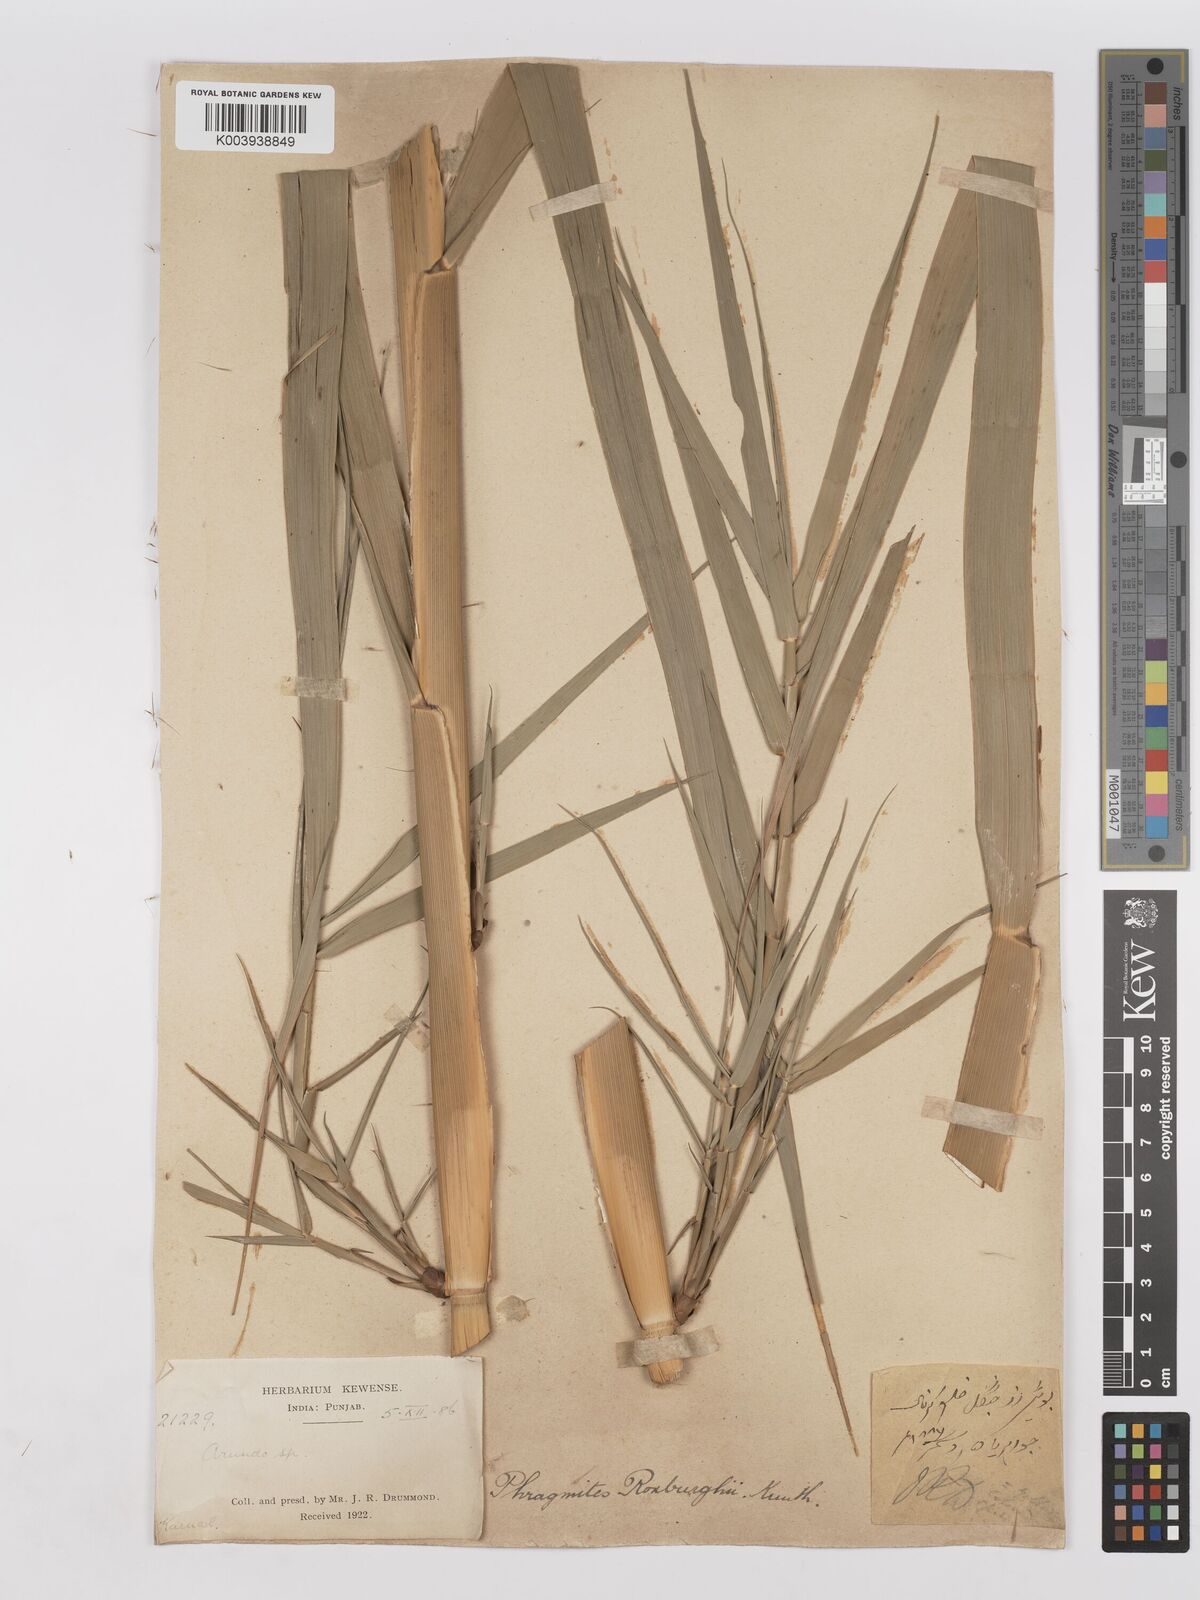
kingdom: Plantae
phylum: Tracheophyta
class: Liliopsida
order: Poales
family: Poaceae
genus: Phragmites
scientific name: Phragmites karka
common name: Tropical reed
